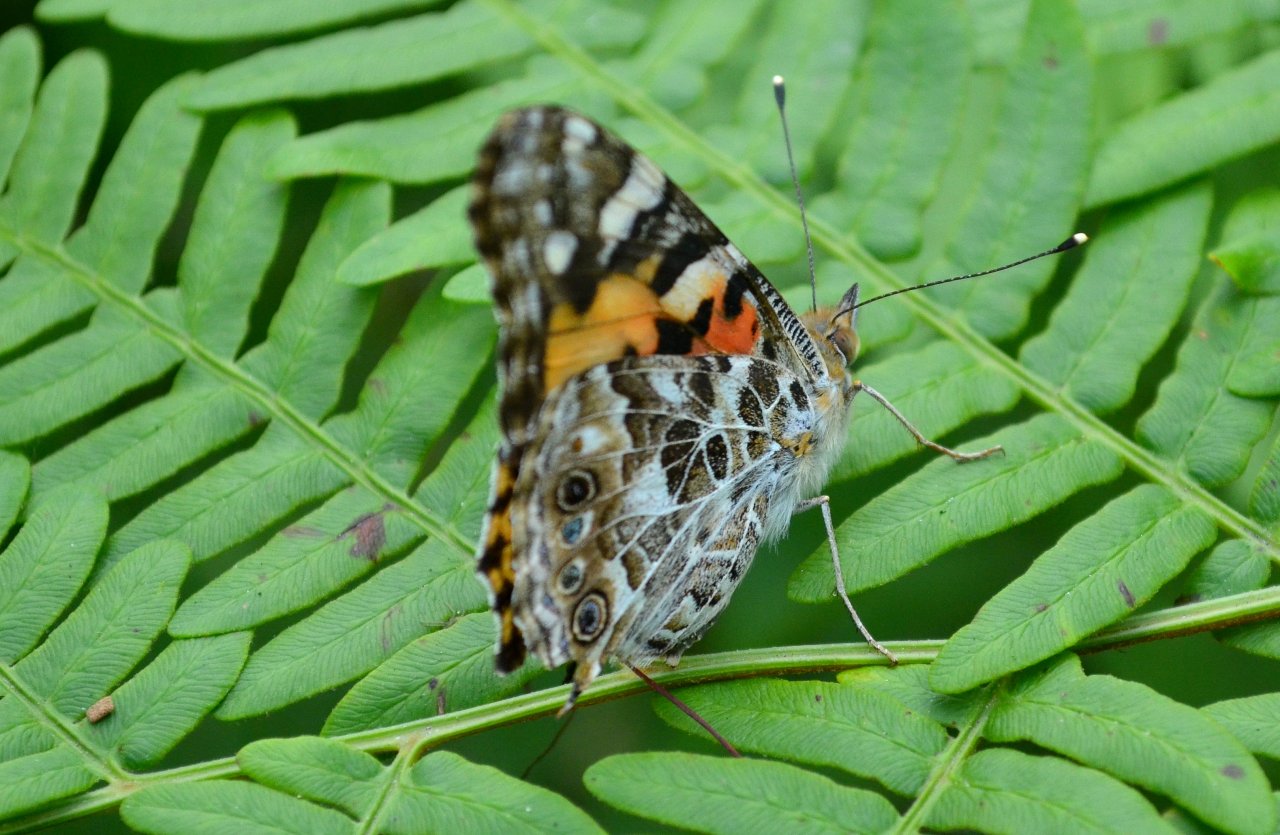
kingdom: Animalia
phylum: Arthropoda
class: Insecta
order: Lepidoptera
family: Nymphalidae
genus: Vanessa
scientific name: Vanessa cardui
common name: Painted Lady
